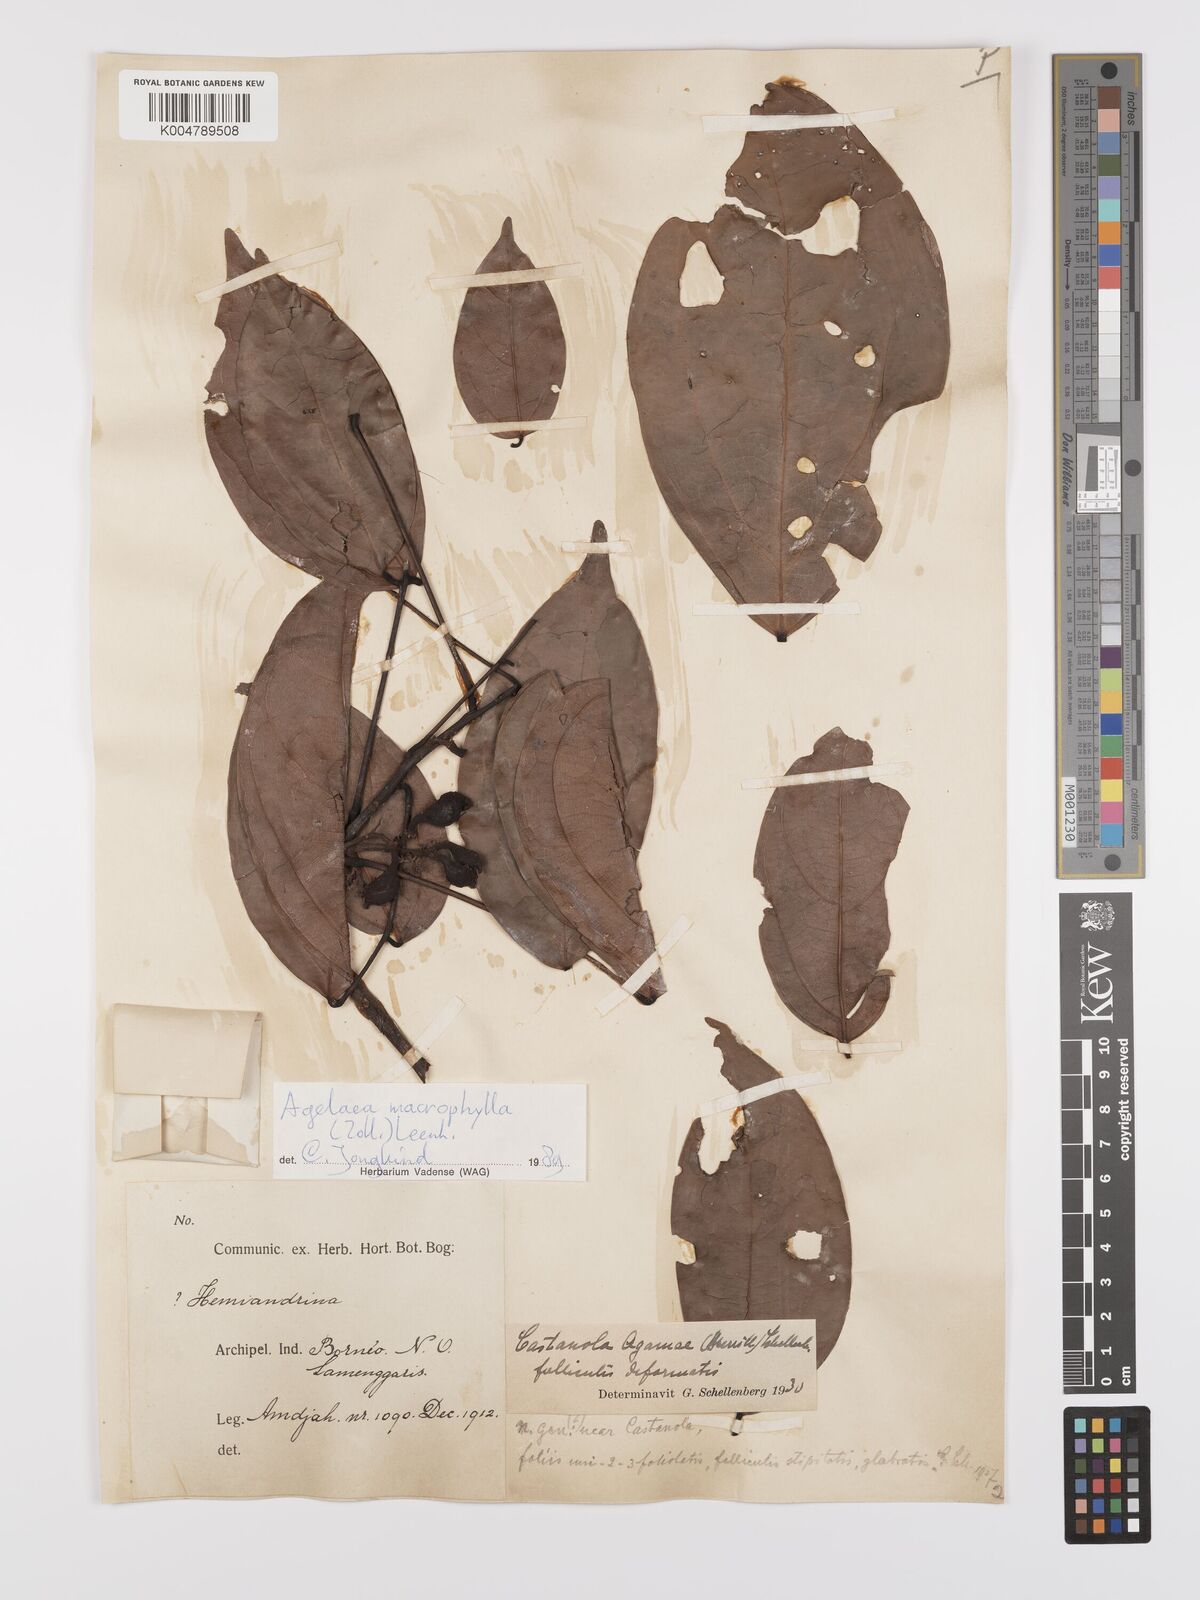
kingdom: Plantae
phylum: Tracheophyta
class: Magnoliopsida
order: Oxalidales
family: Connaraceae
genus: Agelaea
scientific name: Agelaea trinervis
